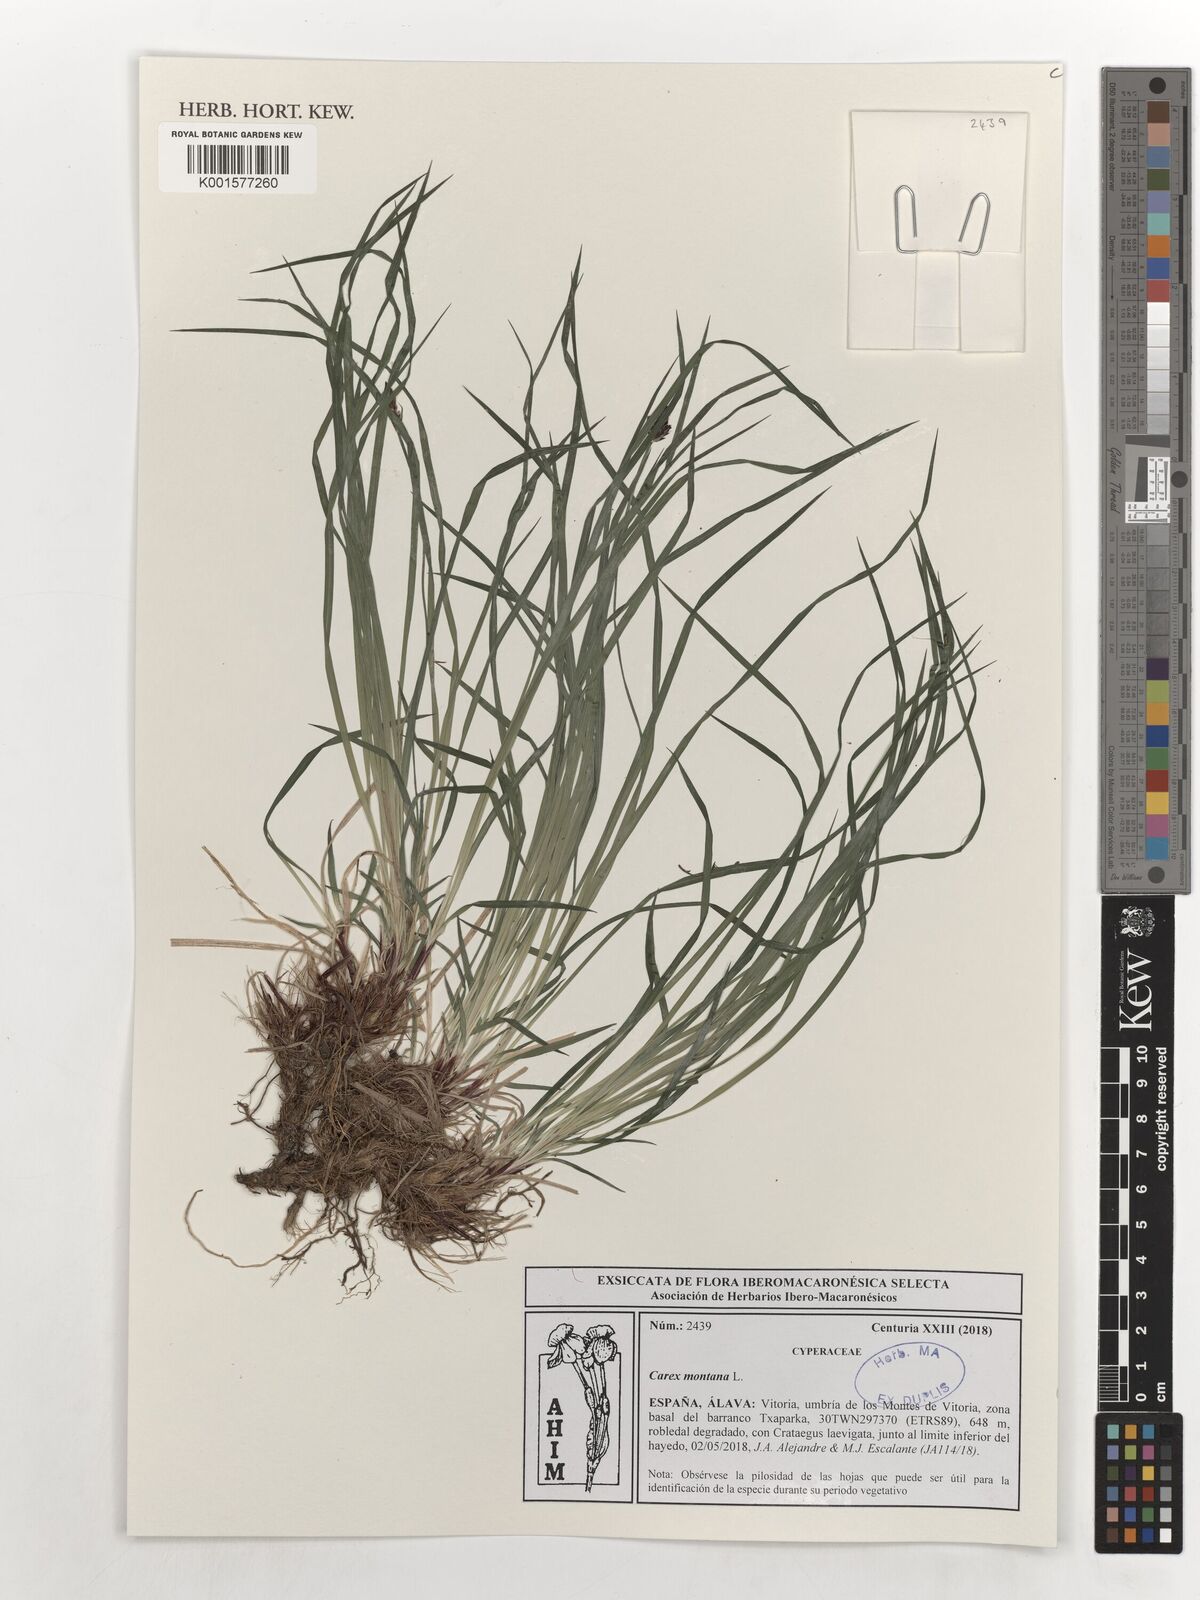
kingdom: Plantae
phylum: Tracheophyta
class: Liliopsida
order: Poales
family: Cyperaceae
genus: Carex
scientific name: Carex montana
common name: Soft-leaved sedge
